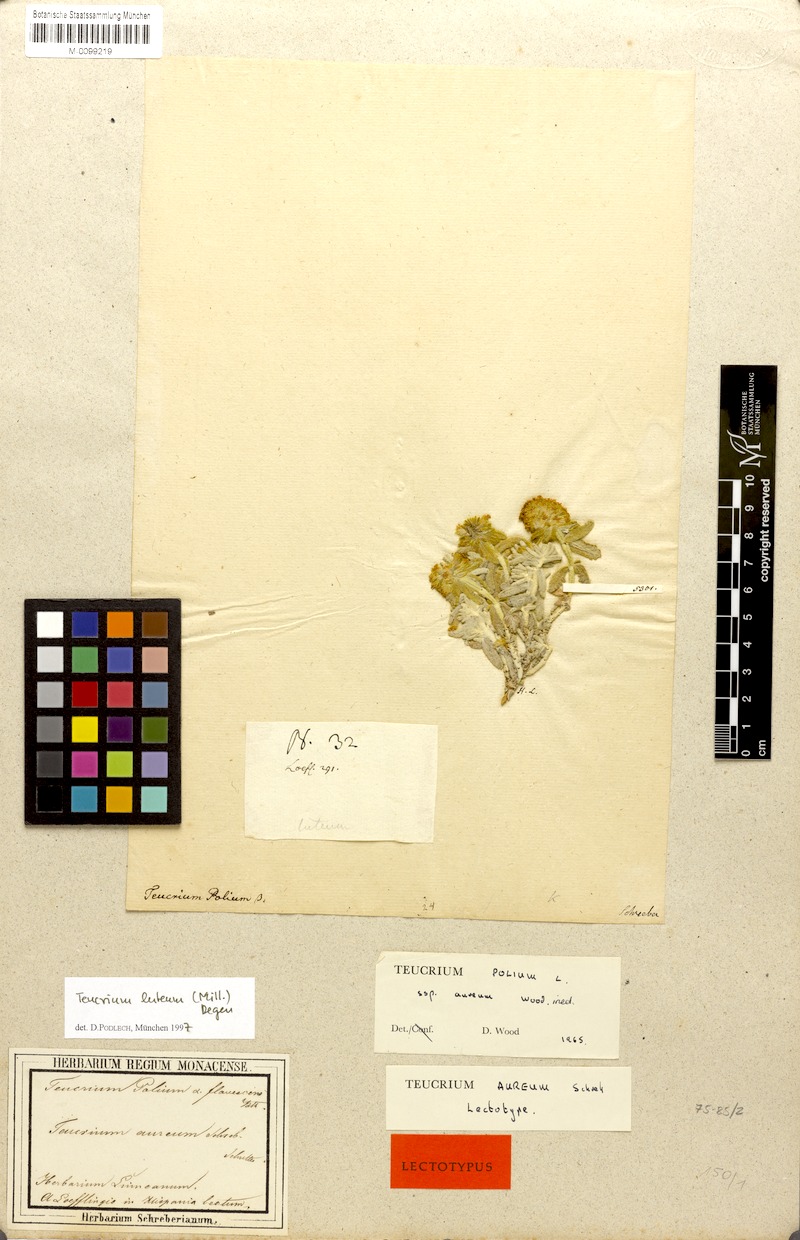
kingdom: Plantae
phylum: Tracheophyta
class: Magnoliopsida
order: Lamiales
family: Lamiaceae
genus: Teucrium
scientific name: Teucrium luteum
